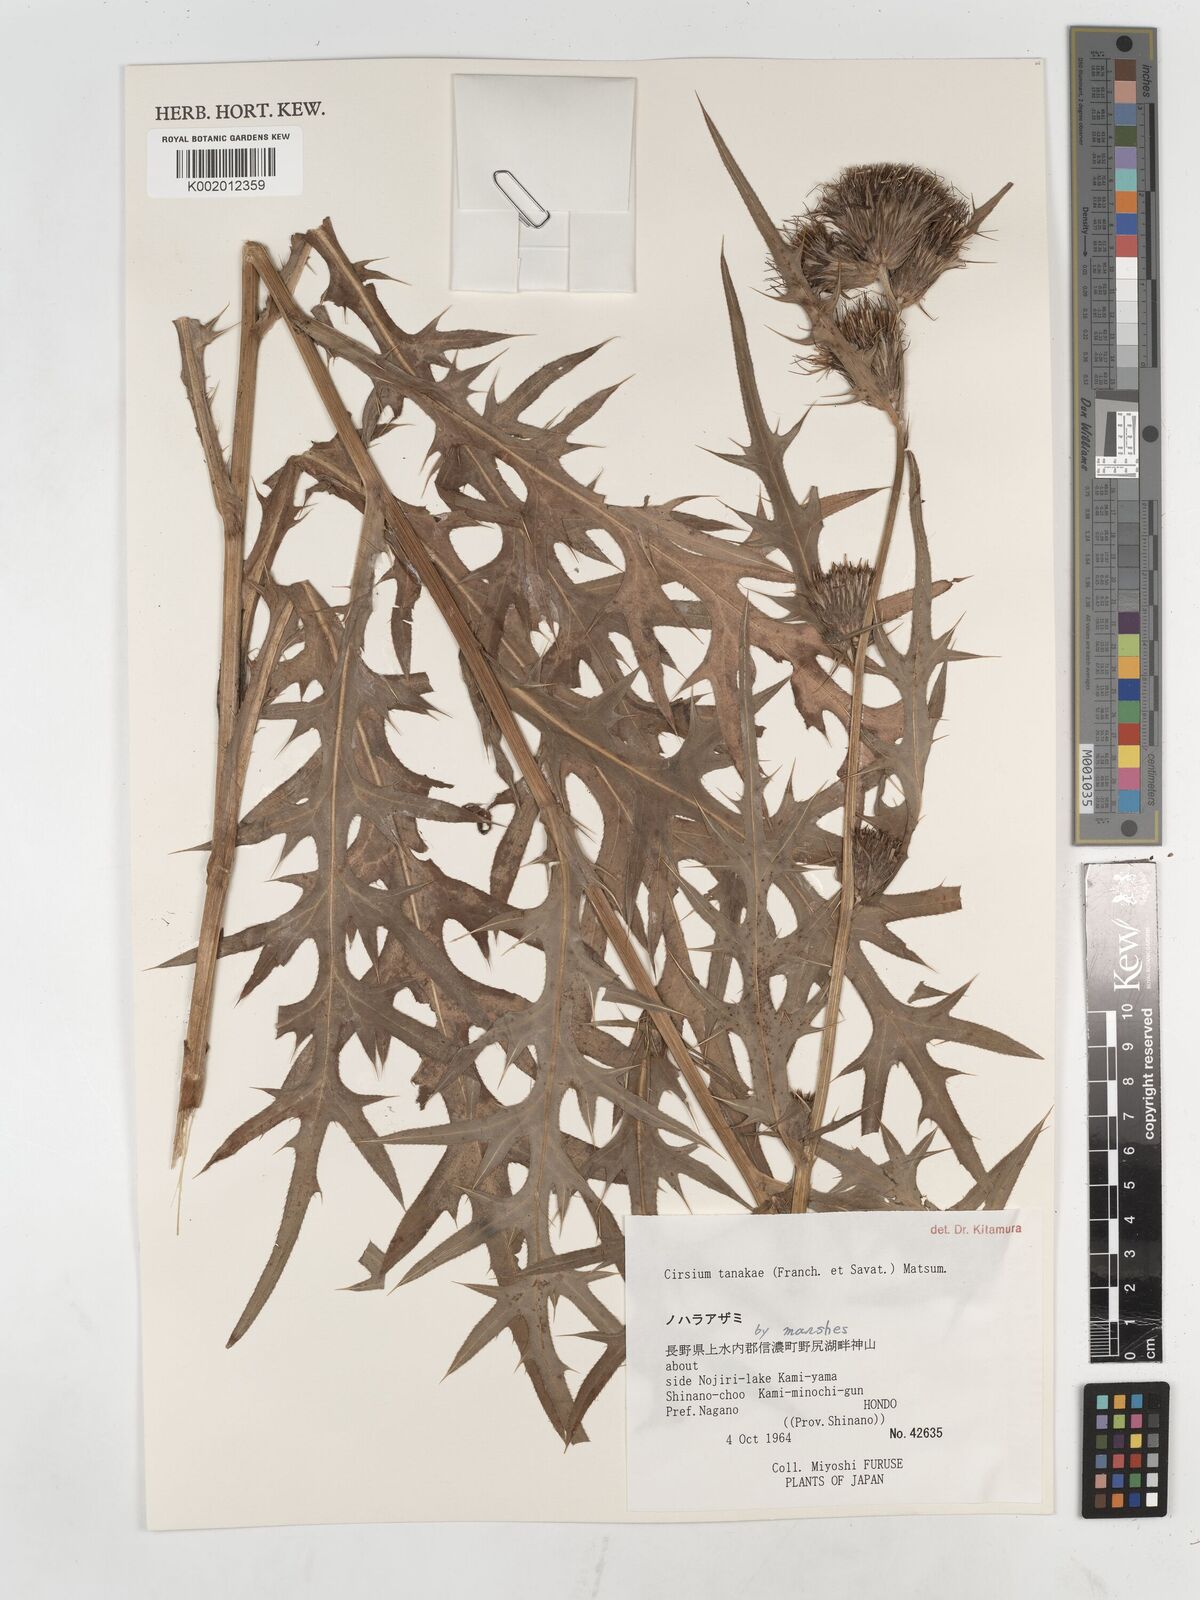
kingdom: Plantae
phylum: Tracheophyta
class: Magnoliopsida
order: Asterales
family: Asteraceae
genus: Cirsium
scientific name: Cirsium nipponicum
